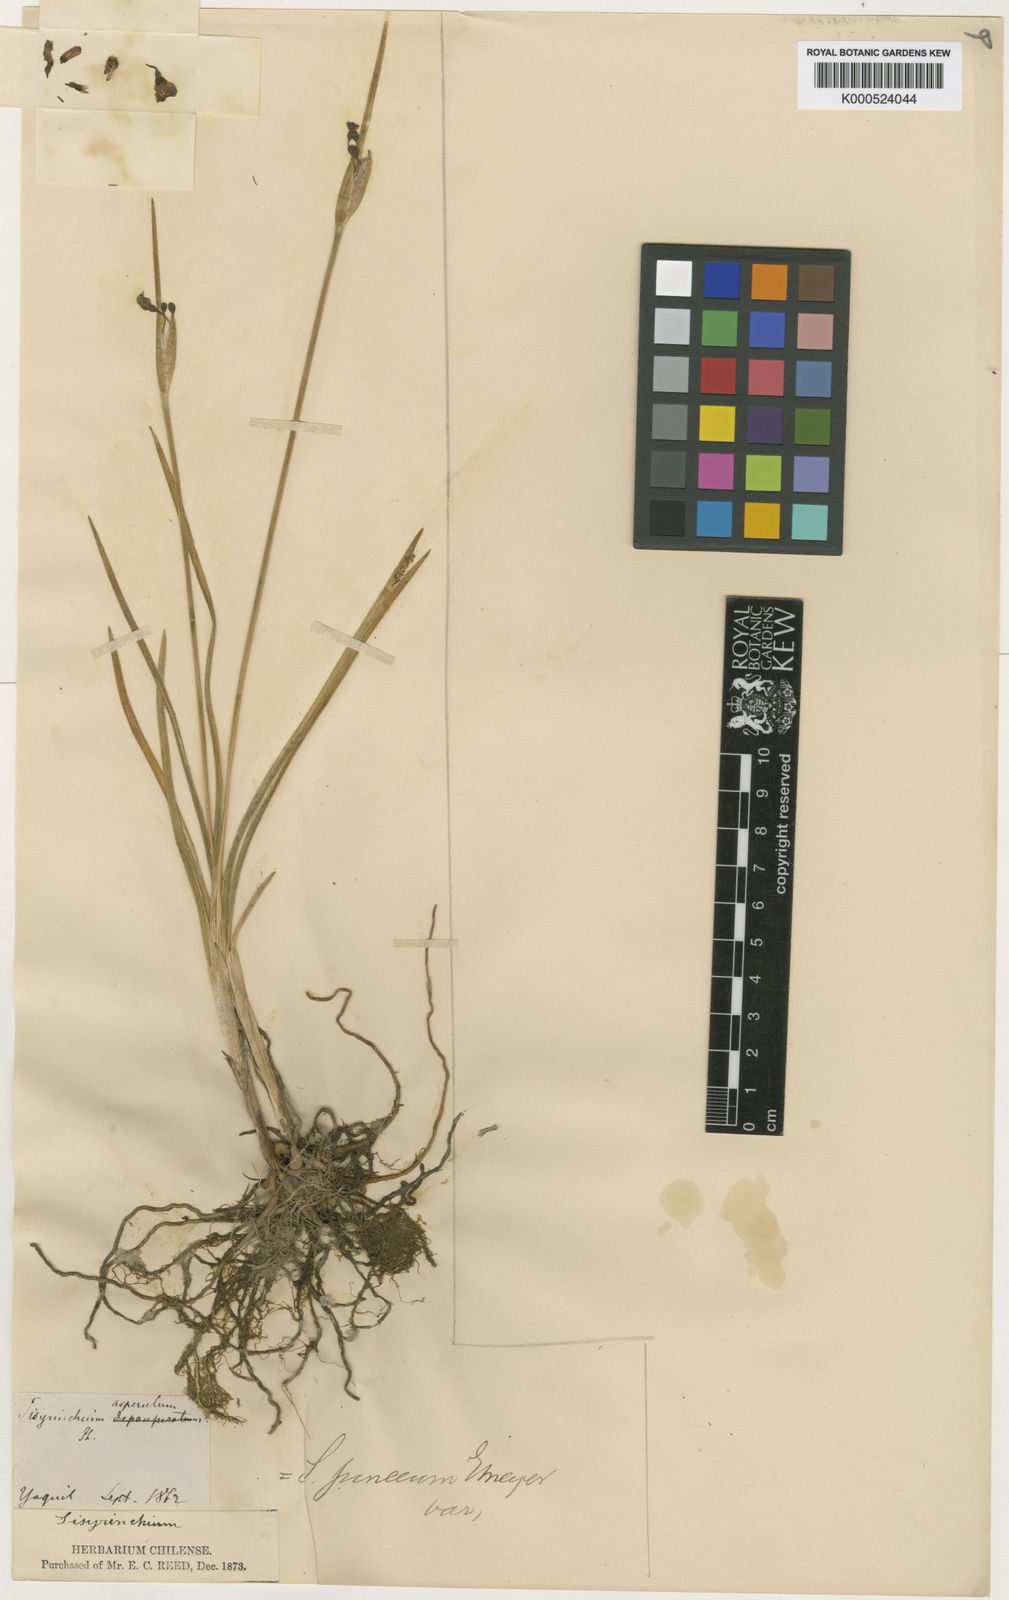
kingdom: Plantae
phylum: Tracheophyta
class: Liliopsida
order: Asparagales
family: Iridaceae
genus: Olsynium
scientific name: Olsynium junceum
